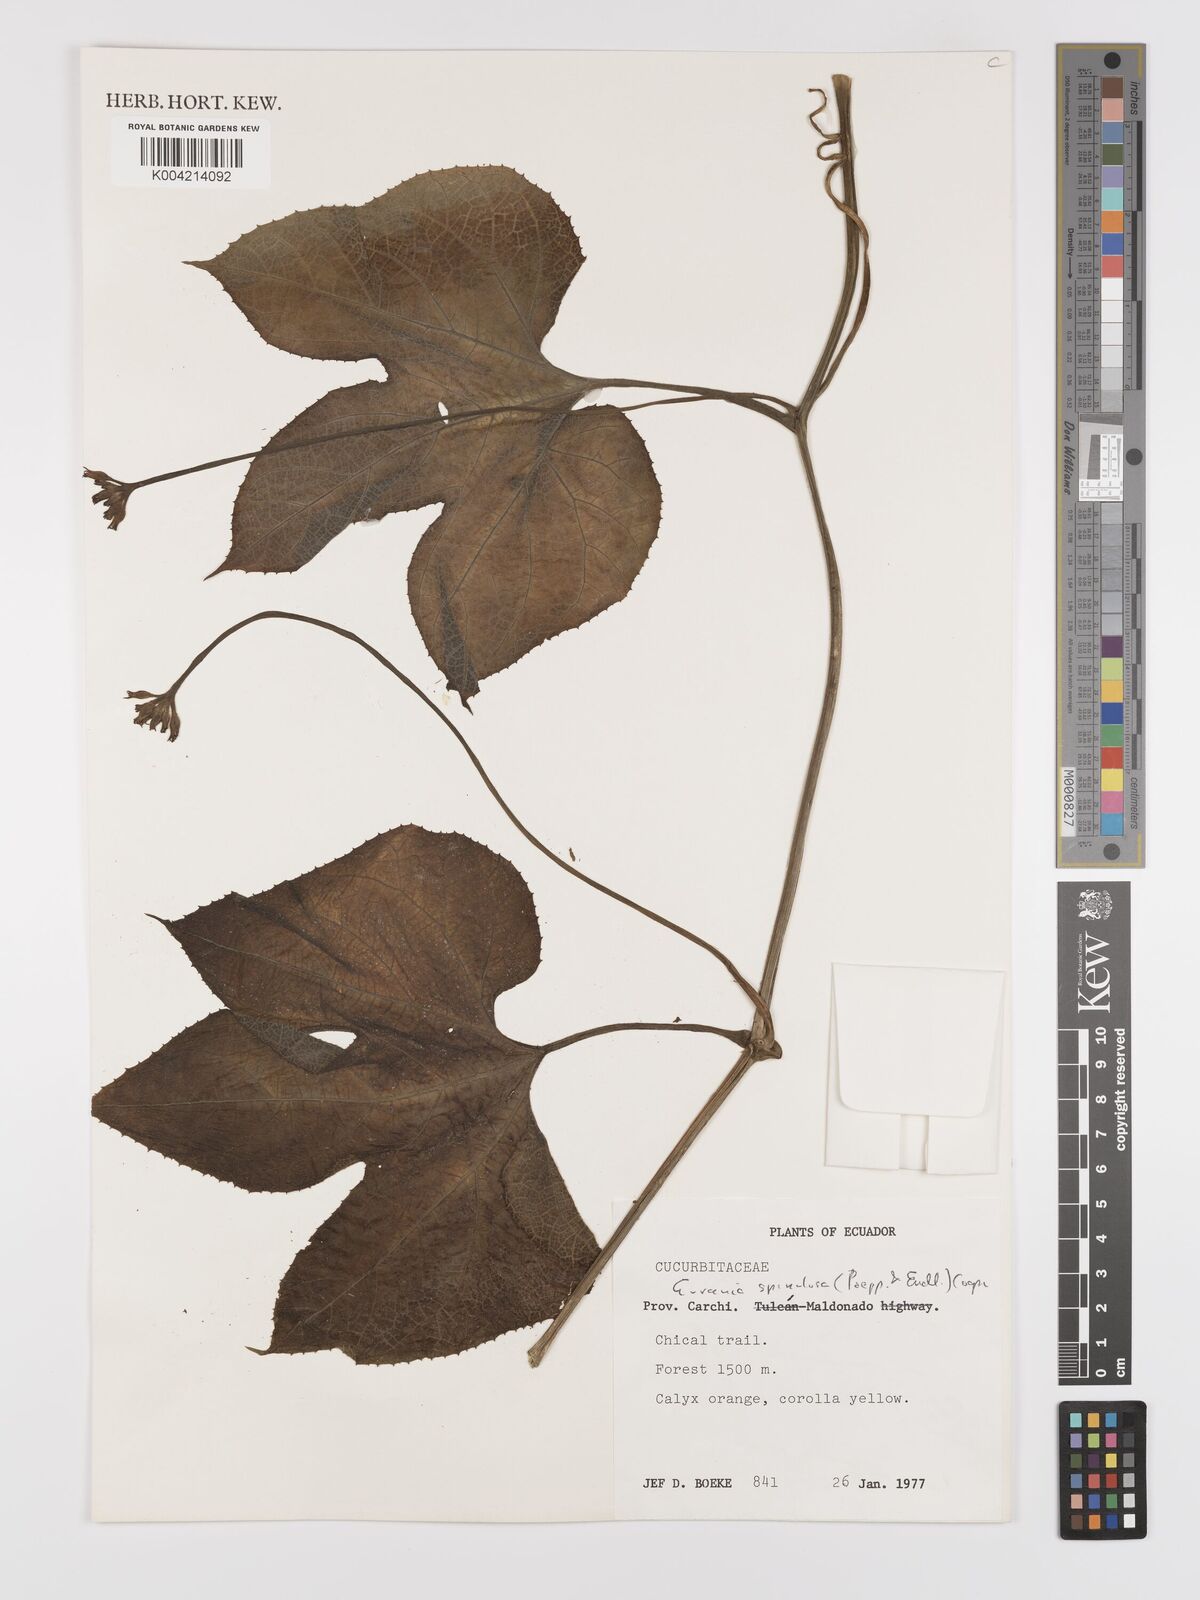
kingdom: Plantae
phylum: Tracheophyta
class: Magnoliopsida
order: Cucurbitales
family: Cucurbitaceae
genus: Gurania
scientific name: Gurania lobata
